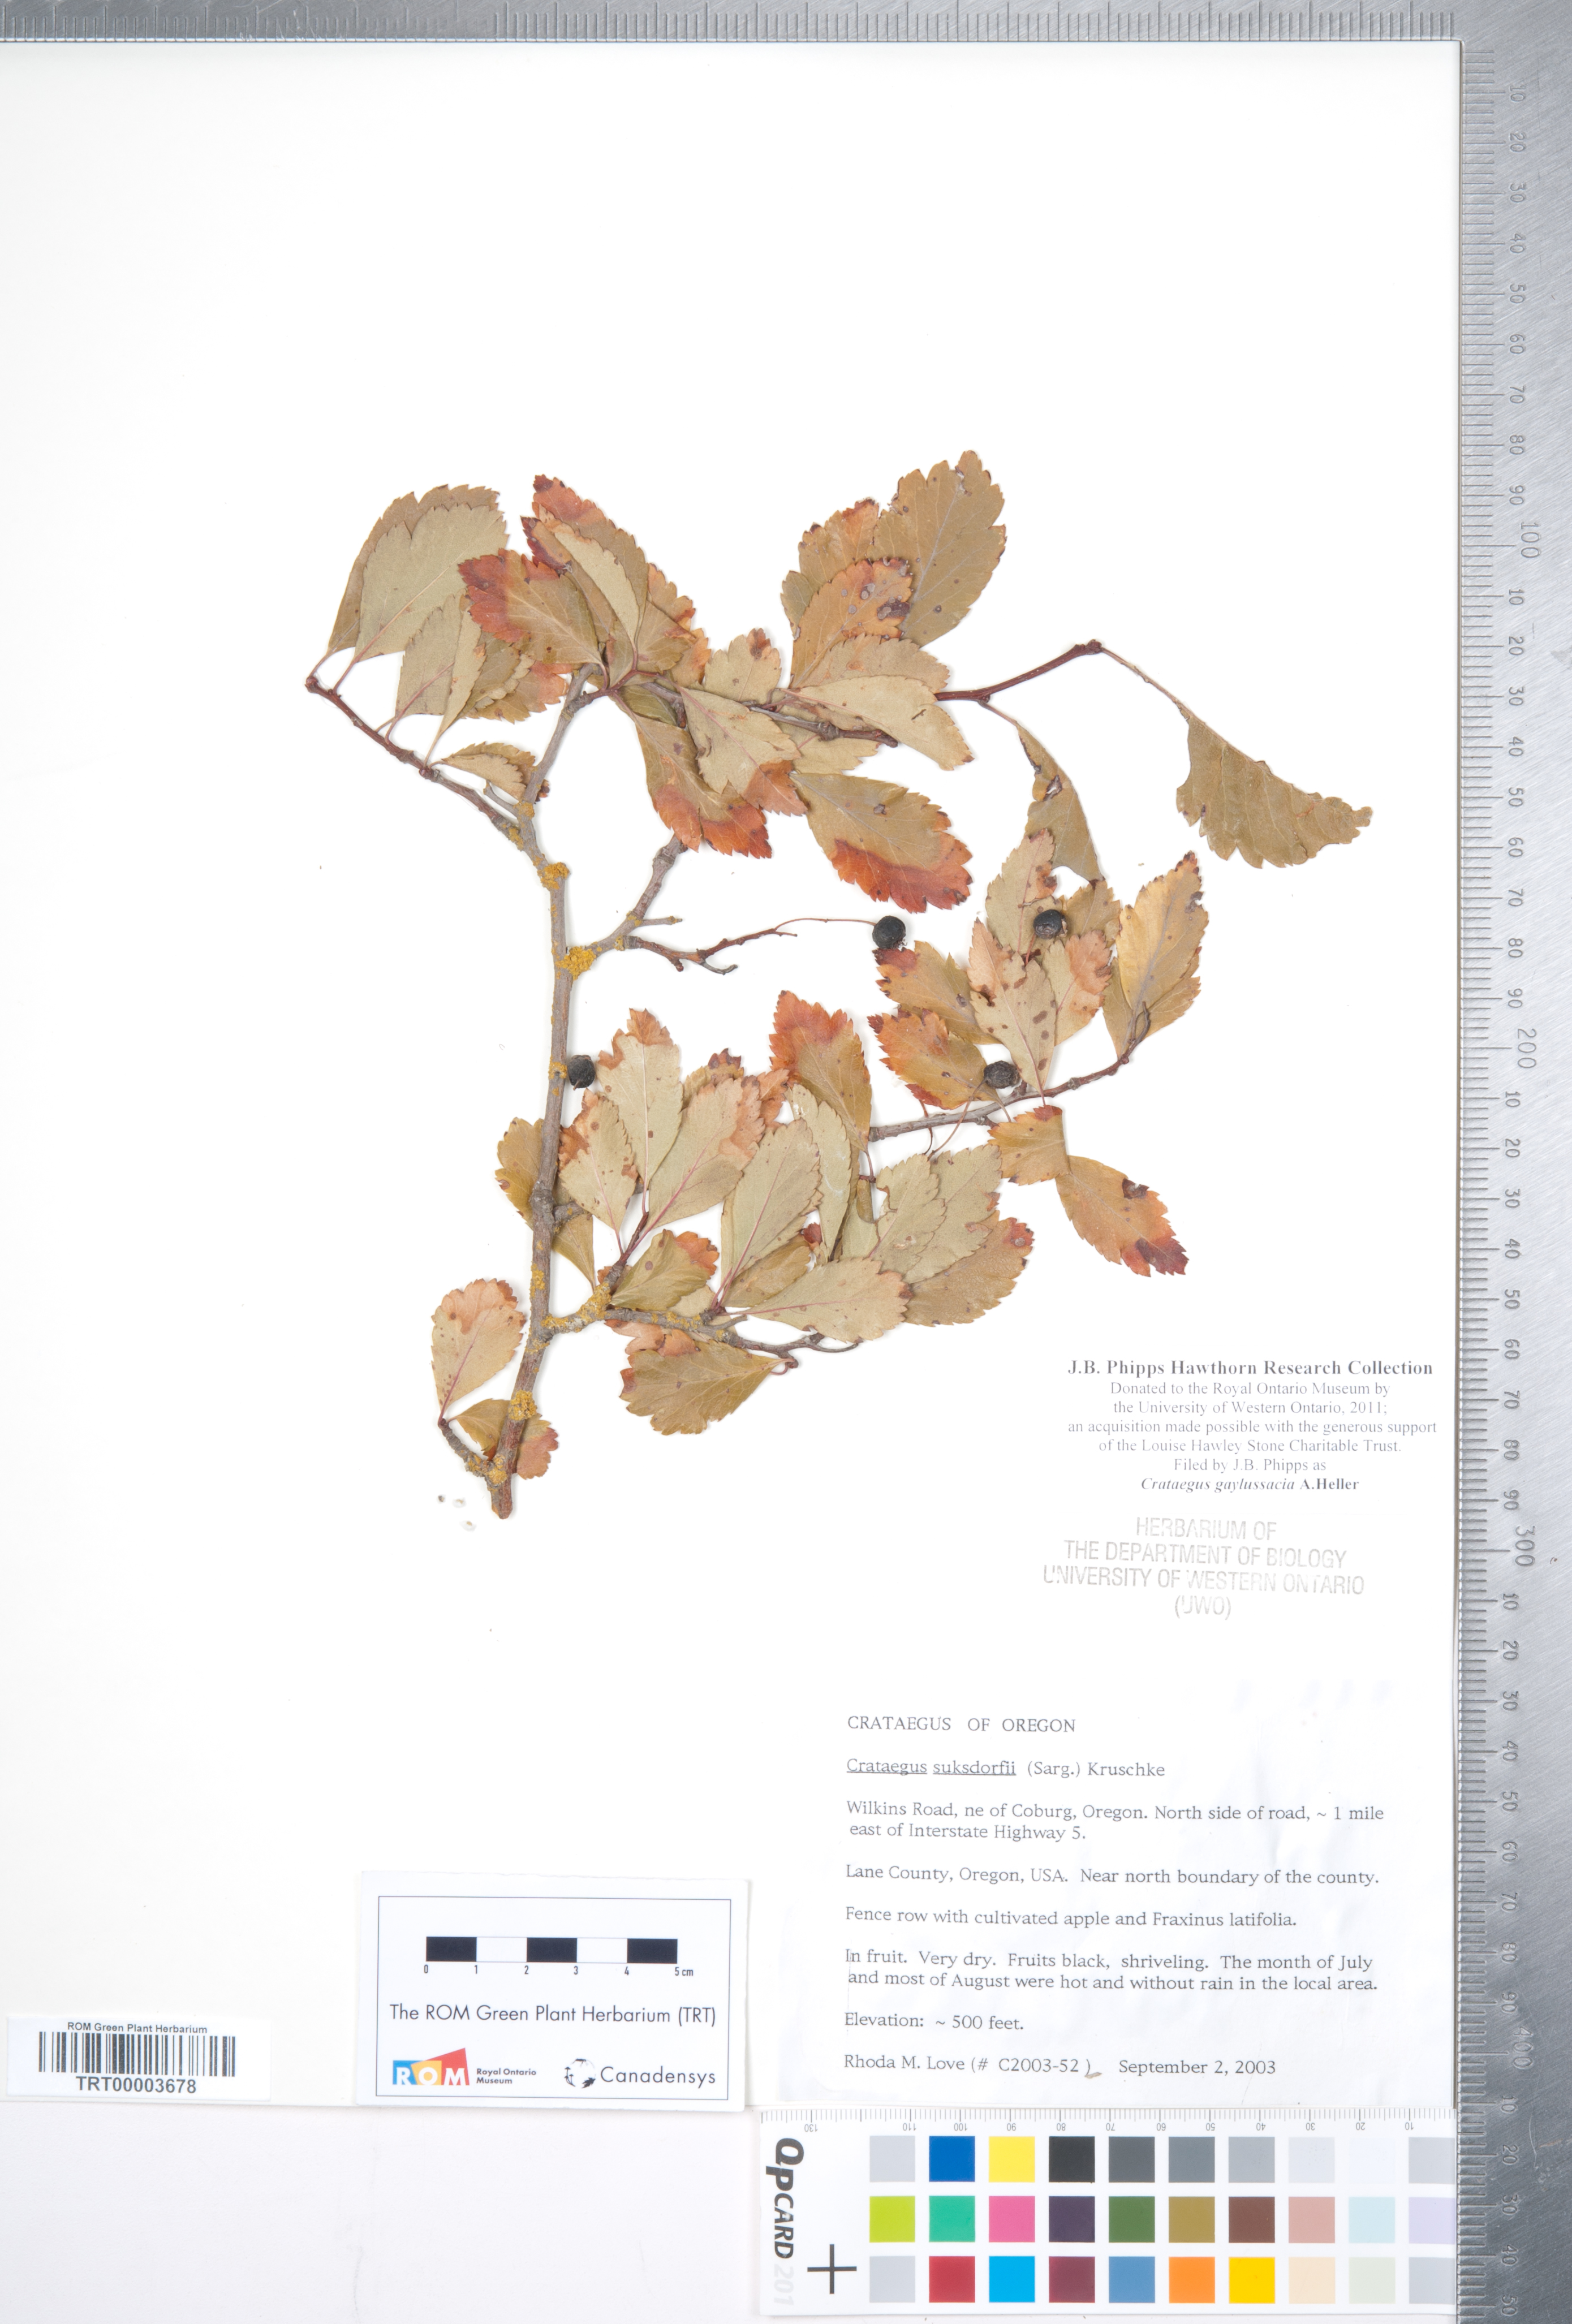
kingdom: Plantae
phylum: Tracheophyta
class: Magnoliopsida
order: Rosales
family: Rosaceae
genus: Crataegus
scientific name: Crataegus gaylussacia
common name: Huckleberry hawthorn
